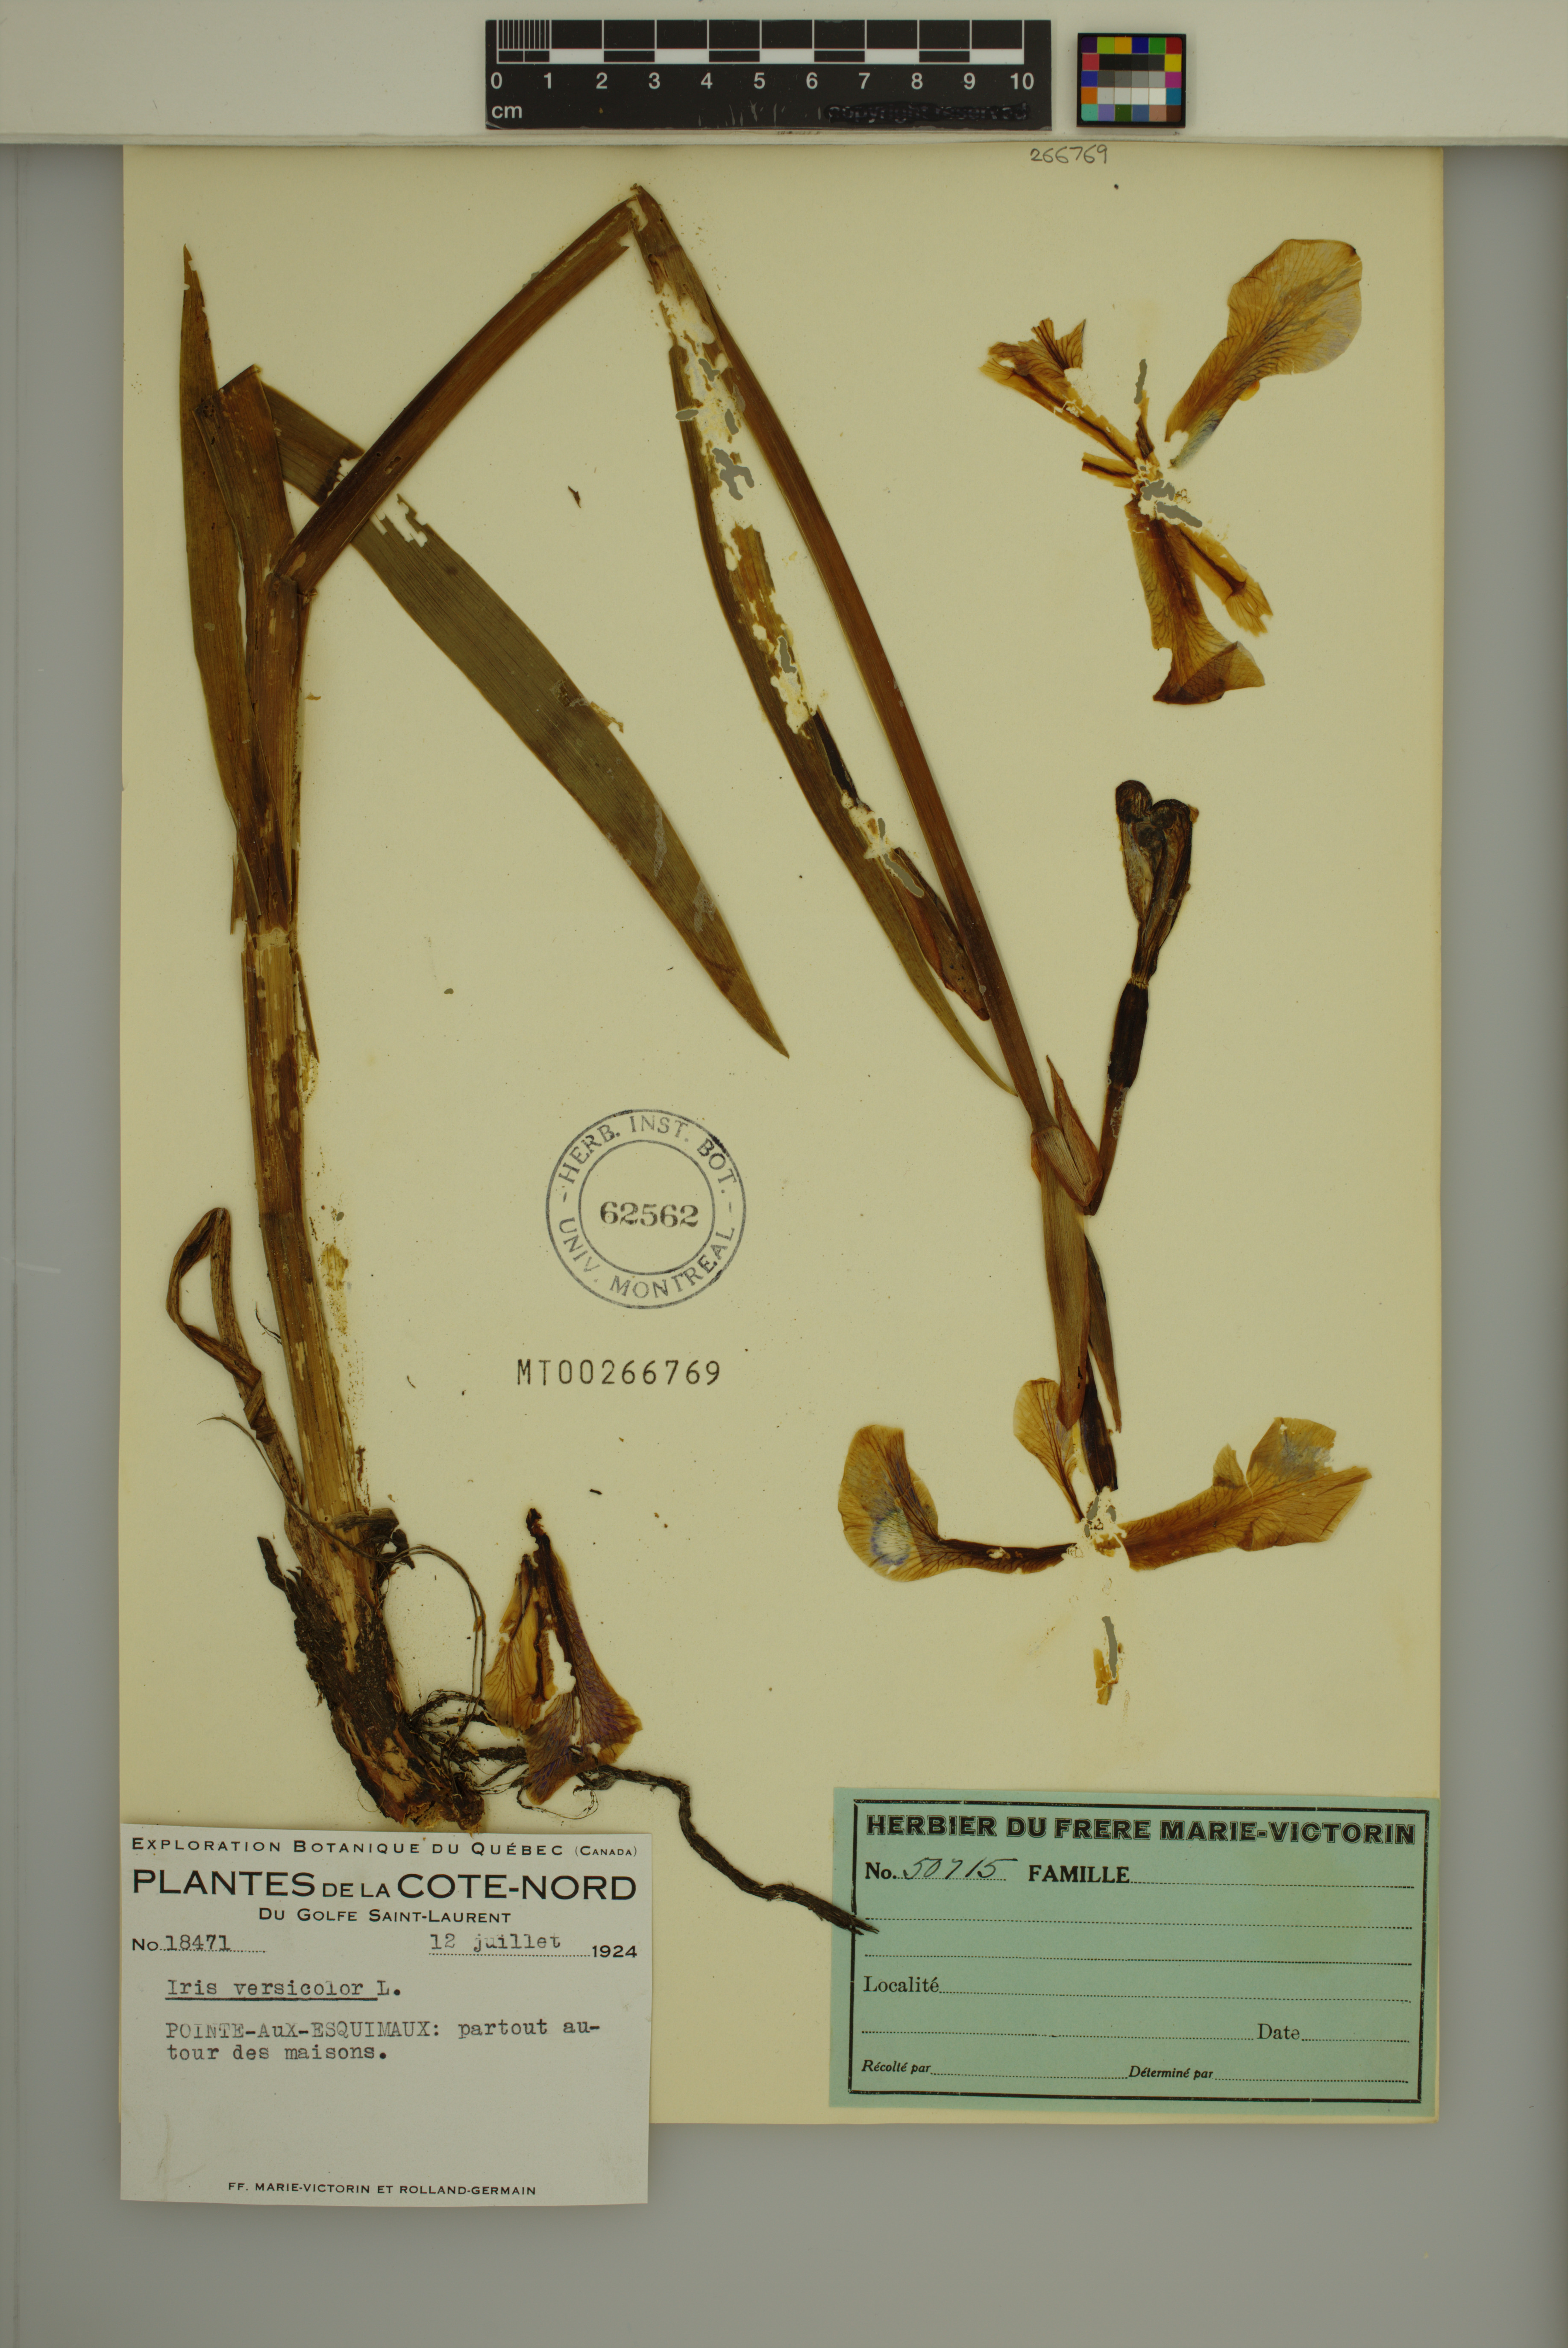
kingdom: Plantae
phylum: Tracheophyta
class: Liliopsida
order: Asparagales
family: Iridaceae
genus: Iris
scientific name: Iris versicolor
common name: Purple iris
